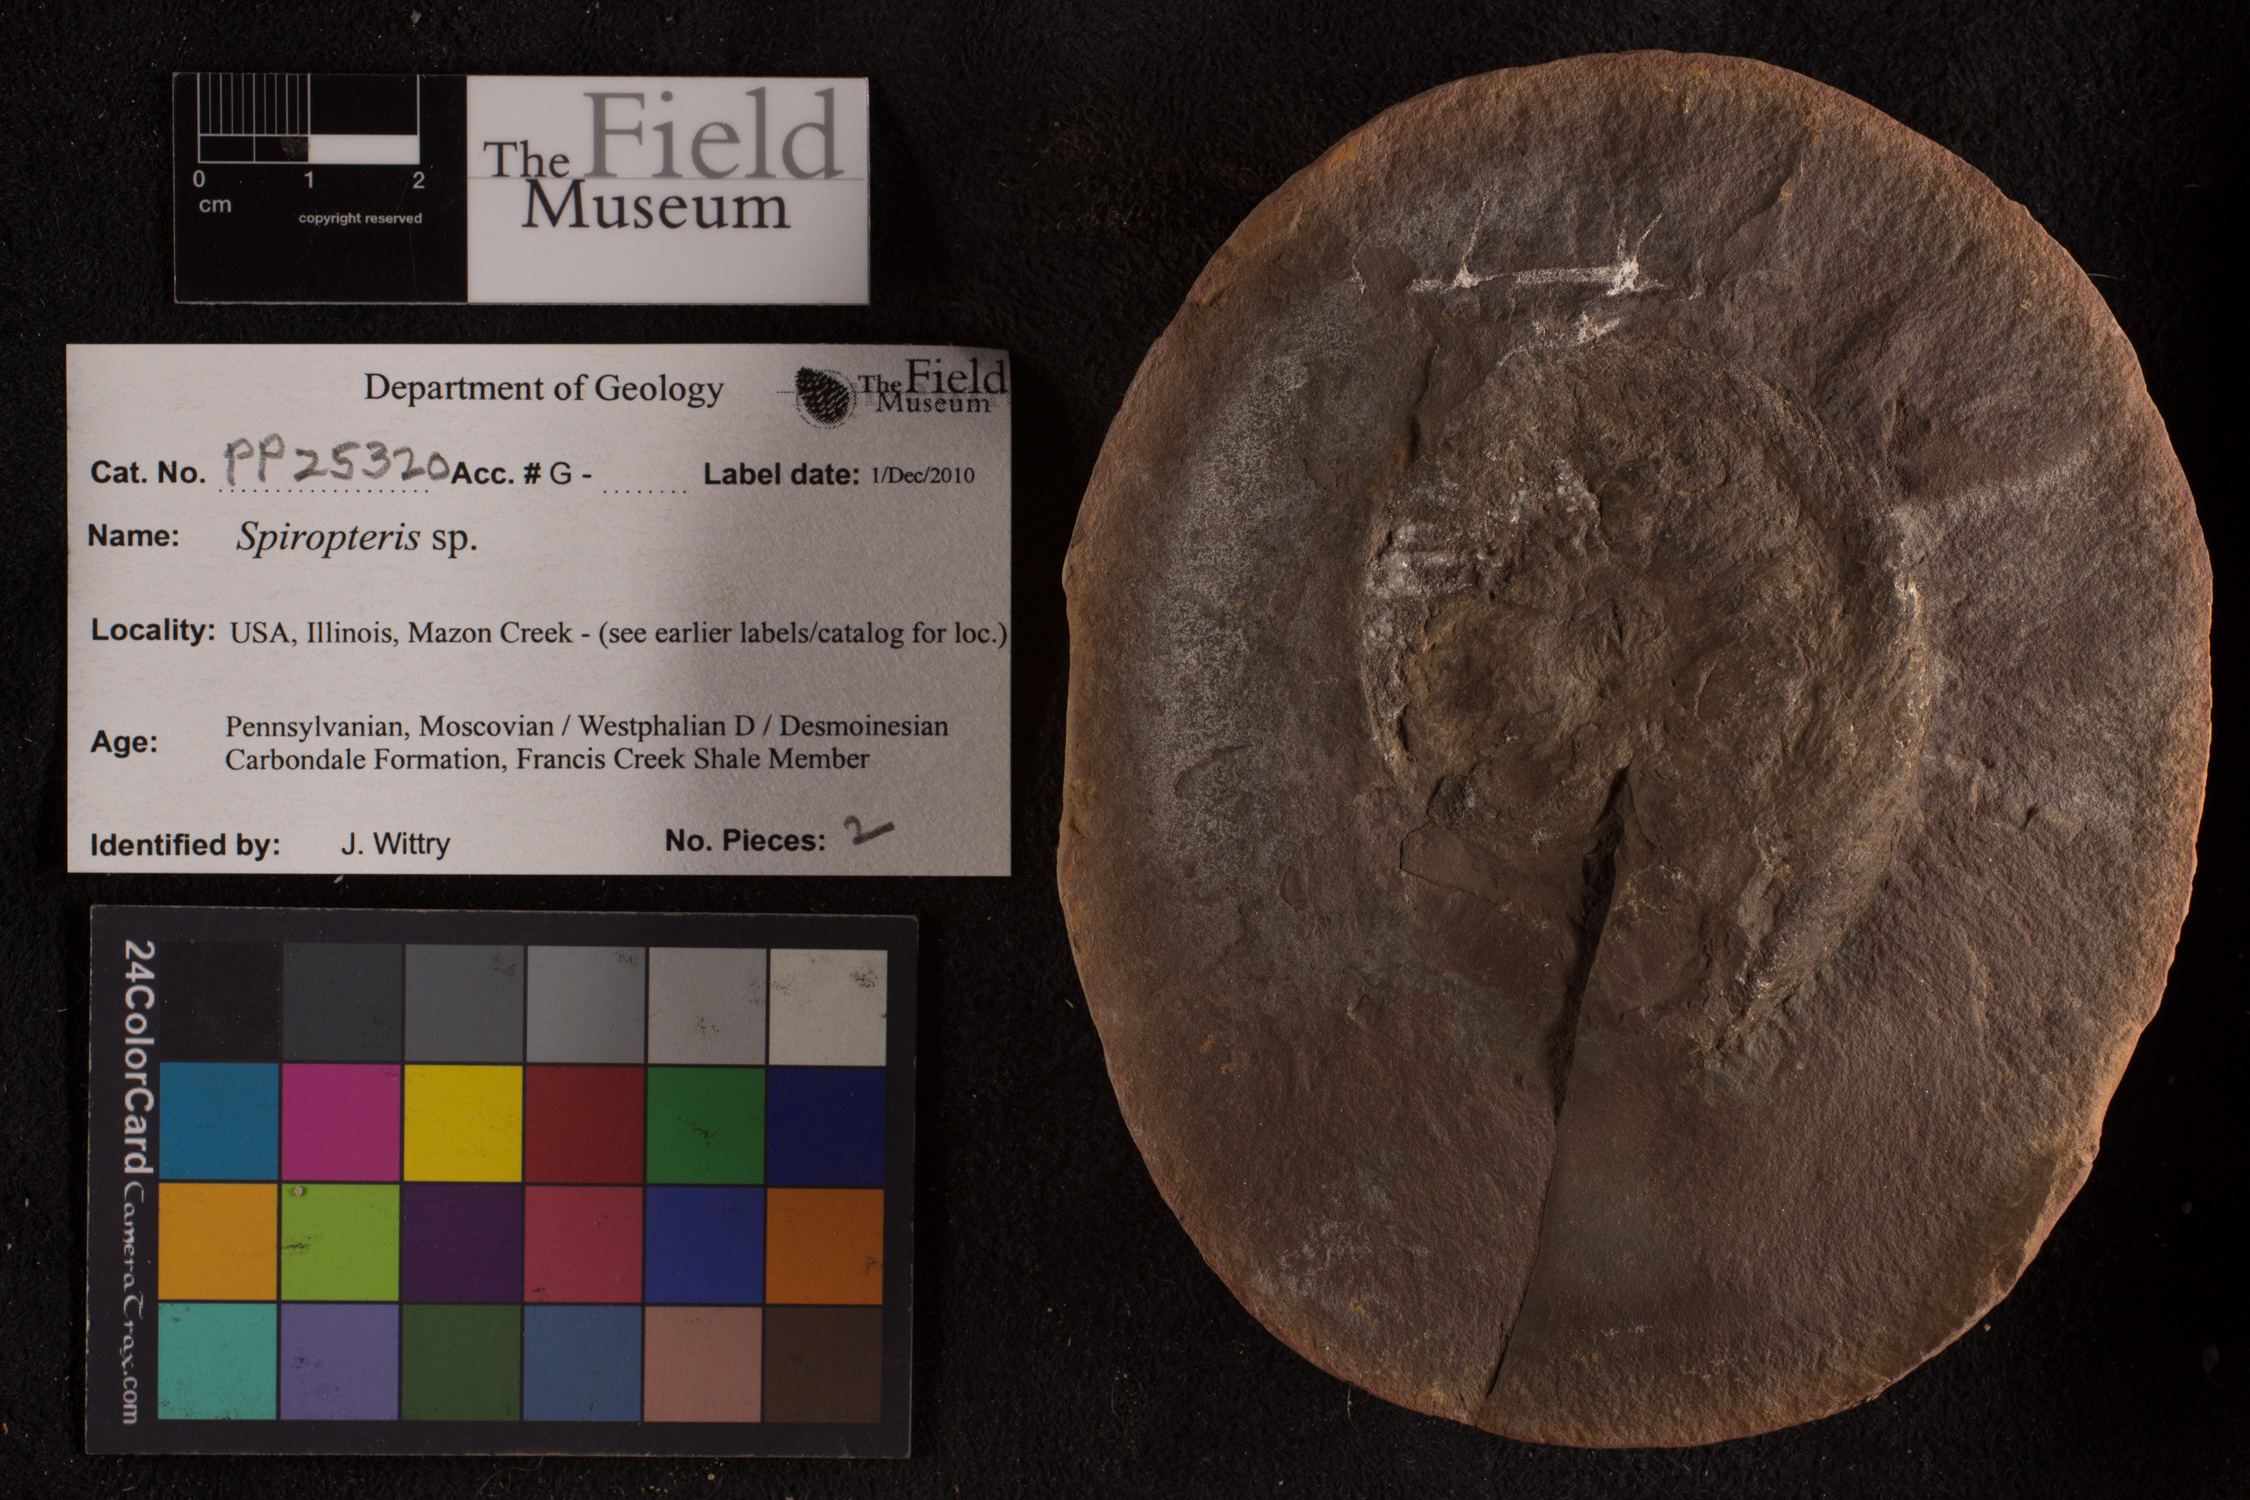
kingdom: Plantae
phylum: Tracheophyta
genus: Spiropteris
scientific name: Spiropteris
